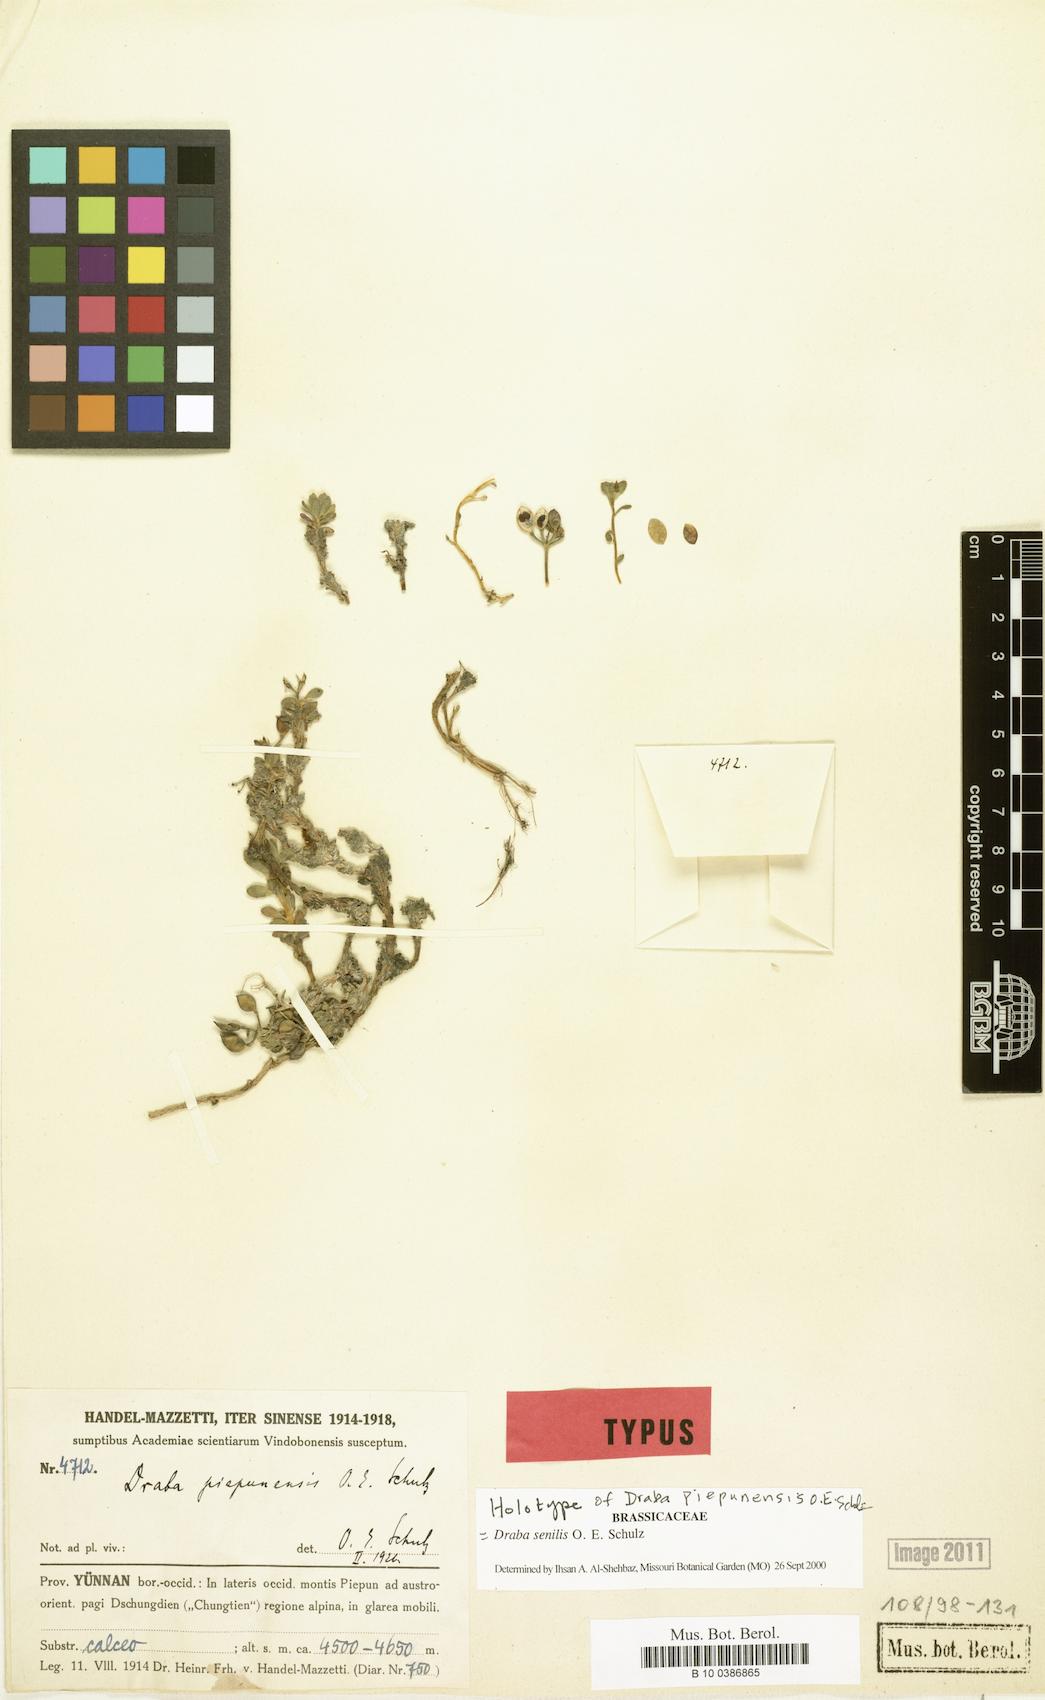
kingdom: Plantae
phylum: Tracheophyta
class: Magnoliopsida
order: Brassicales
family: Brassicaceae
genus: Draba
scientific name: Draba senilis
